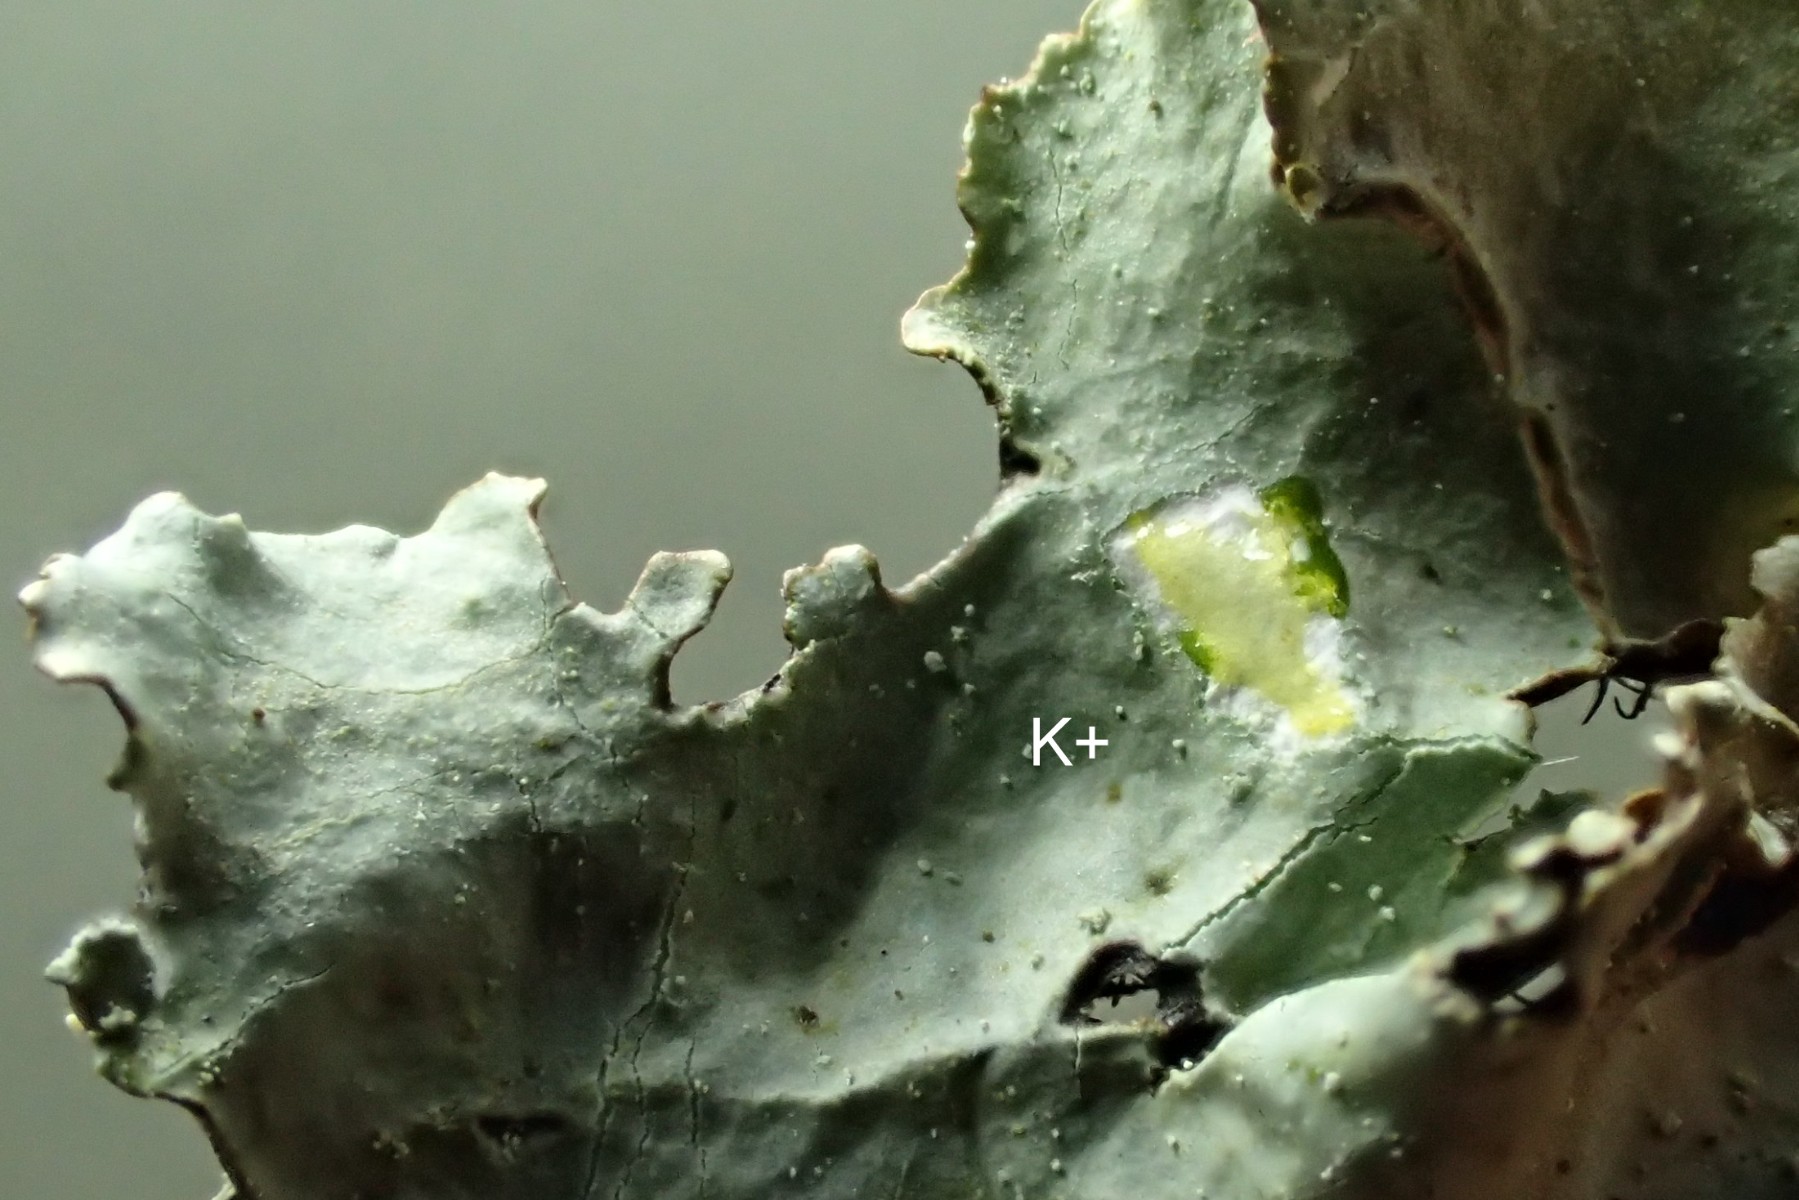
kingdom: Fungi
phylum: Ascomycota
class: Lecanoromycetes
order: Lecanorales
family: Parmeliaceae
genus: Parmotrema
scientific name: Parmotrema perlatum
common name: trådet skållav
